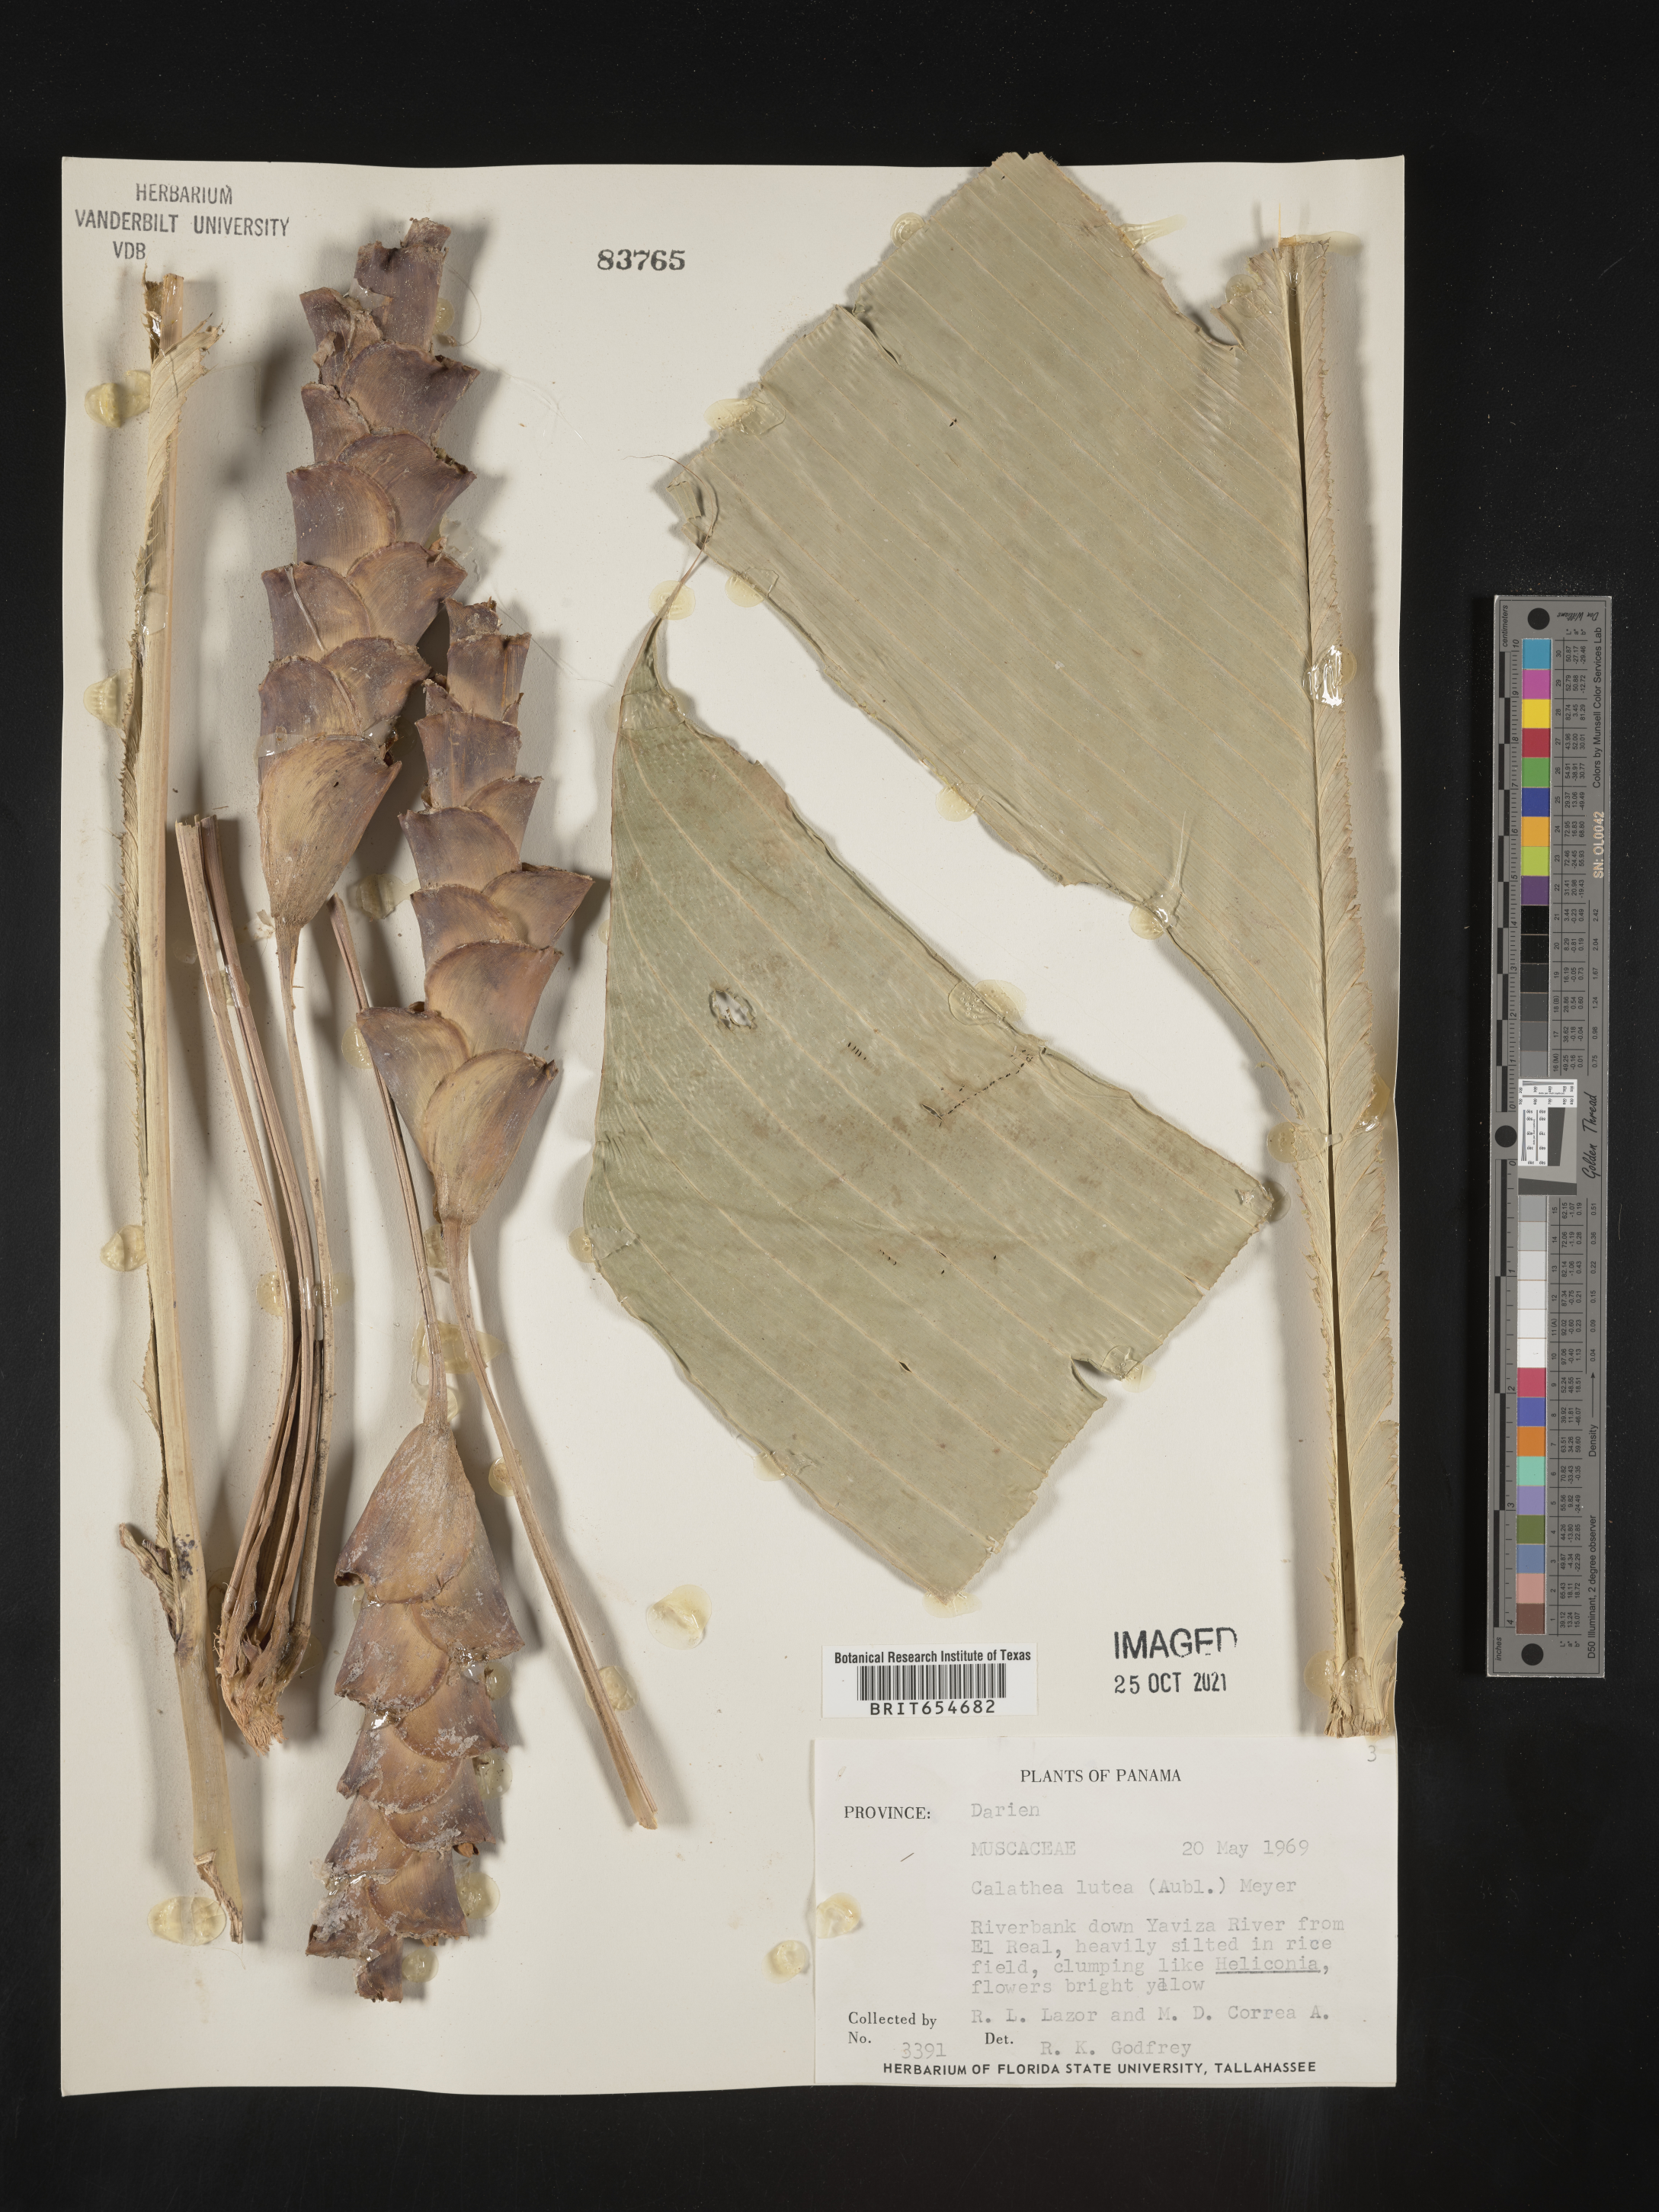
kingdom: Plantae
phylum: Tracheophyta
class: Liliopsida
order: Zingiberales
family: Marantaceae
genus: Calathea
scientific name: Calathea
